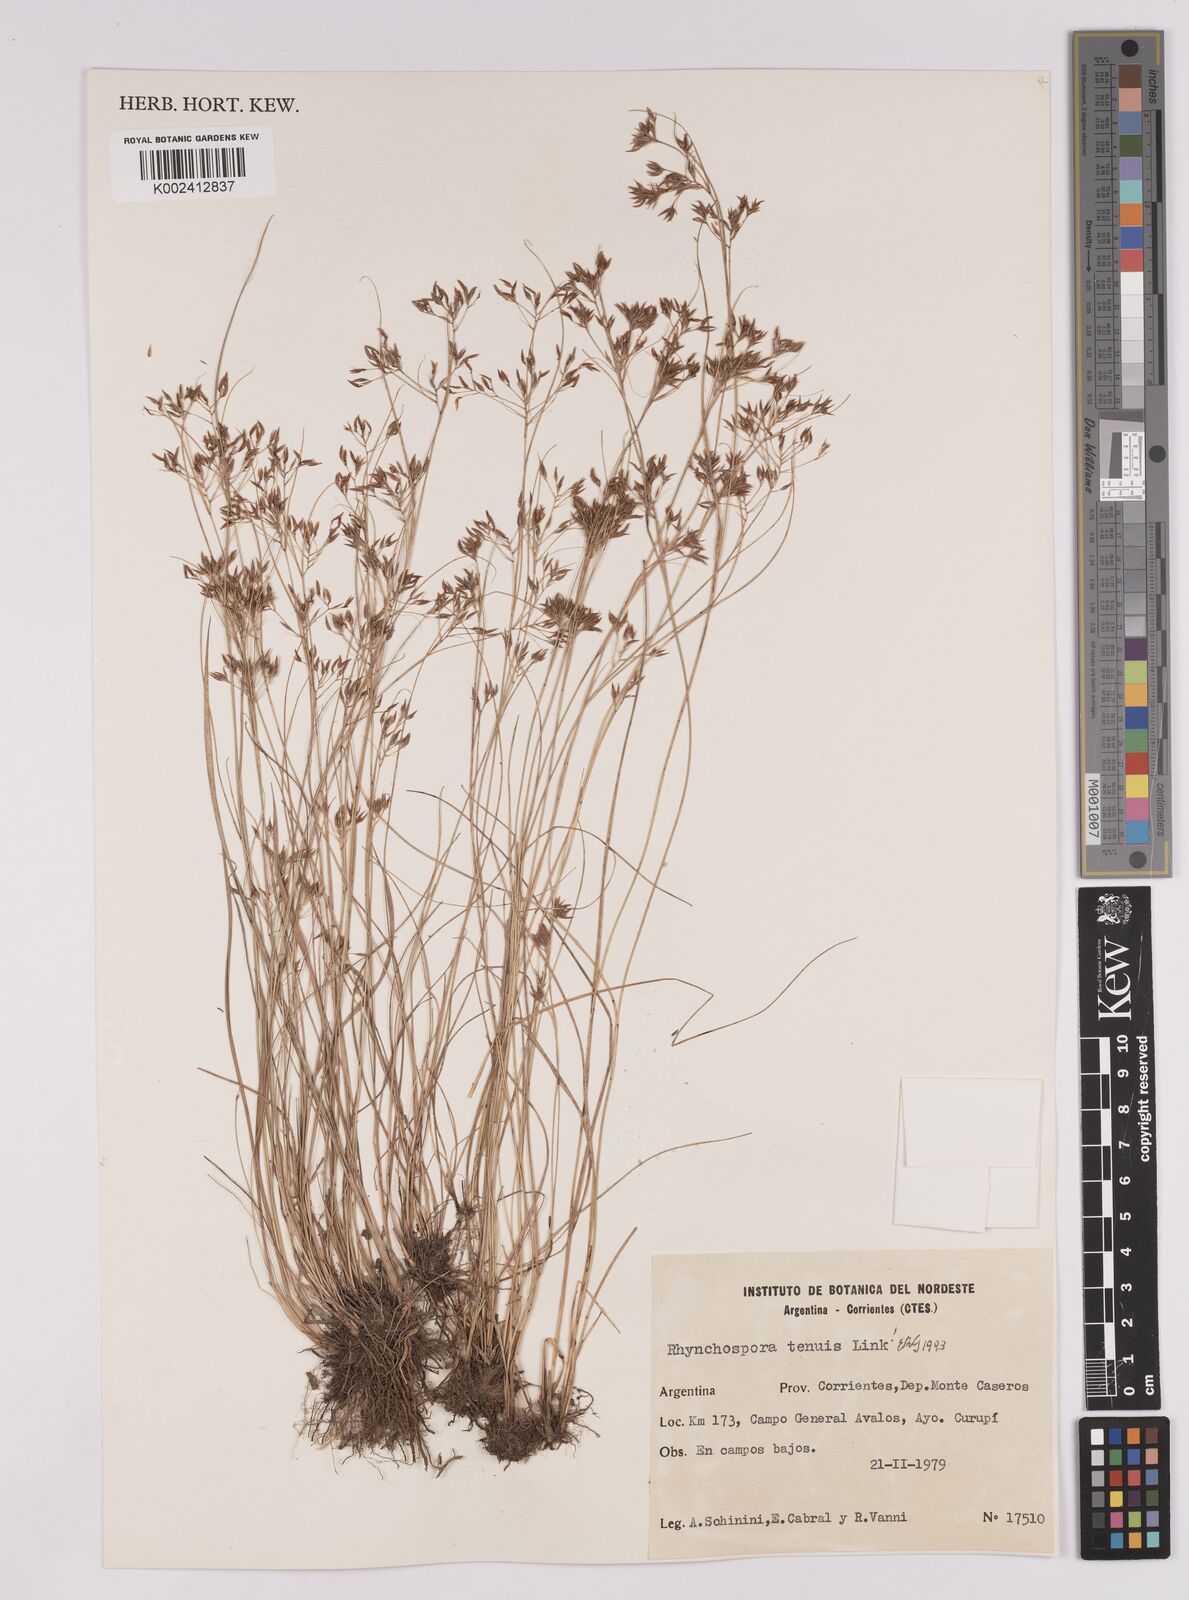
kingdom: Plantae
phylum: Tracheophyta
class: Liliopsida
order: Poales
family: Cyperaceae
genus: Rhynchospora
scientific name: Rhynchospora tenuis
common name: Quill beaksedge
